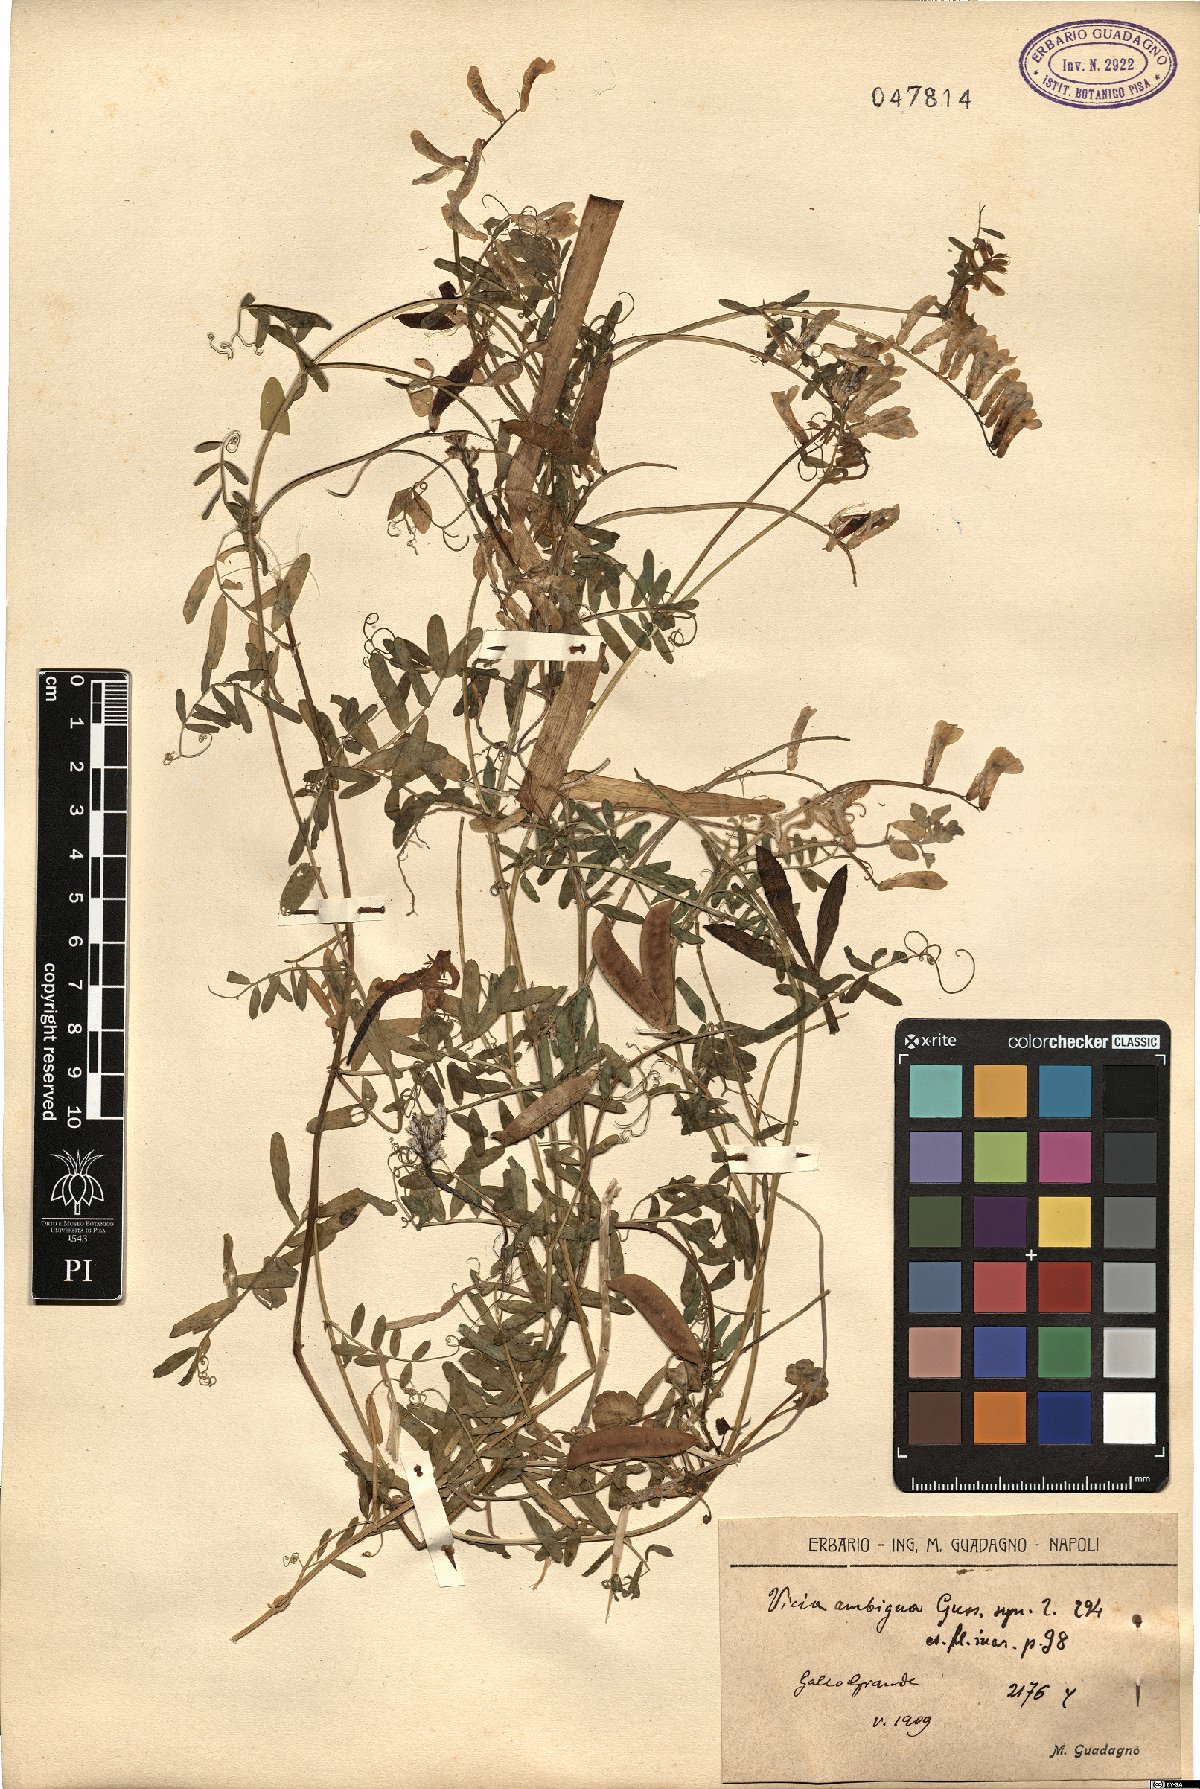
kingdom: Plantae
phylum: Tracheophyta
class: Magnoliopsida
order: Fabales
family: Fabaceae
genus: Vicia
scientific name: Vicia villosa
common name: Fodder vetch
